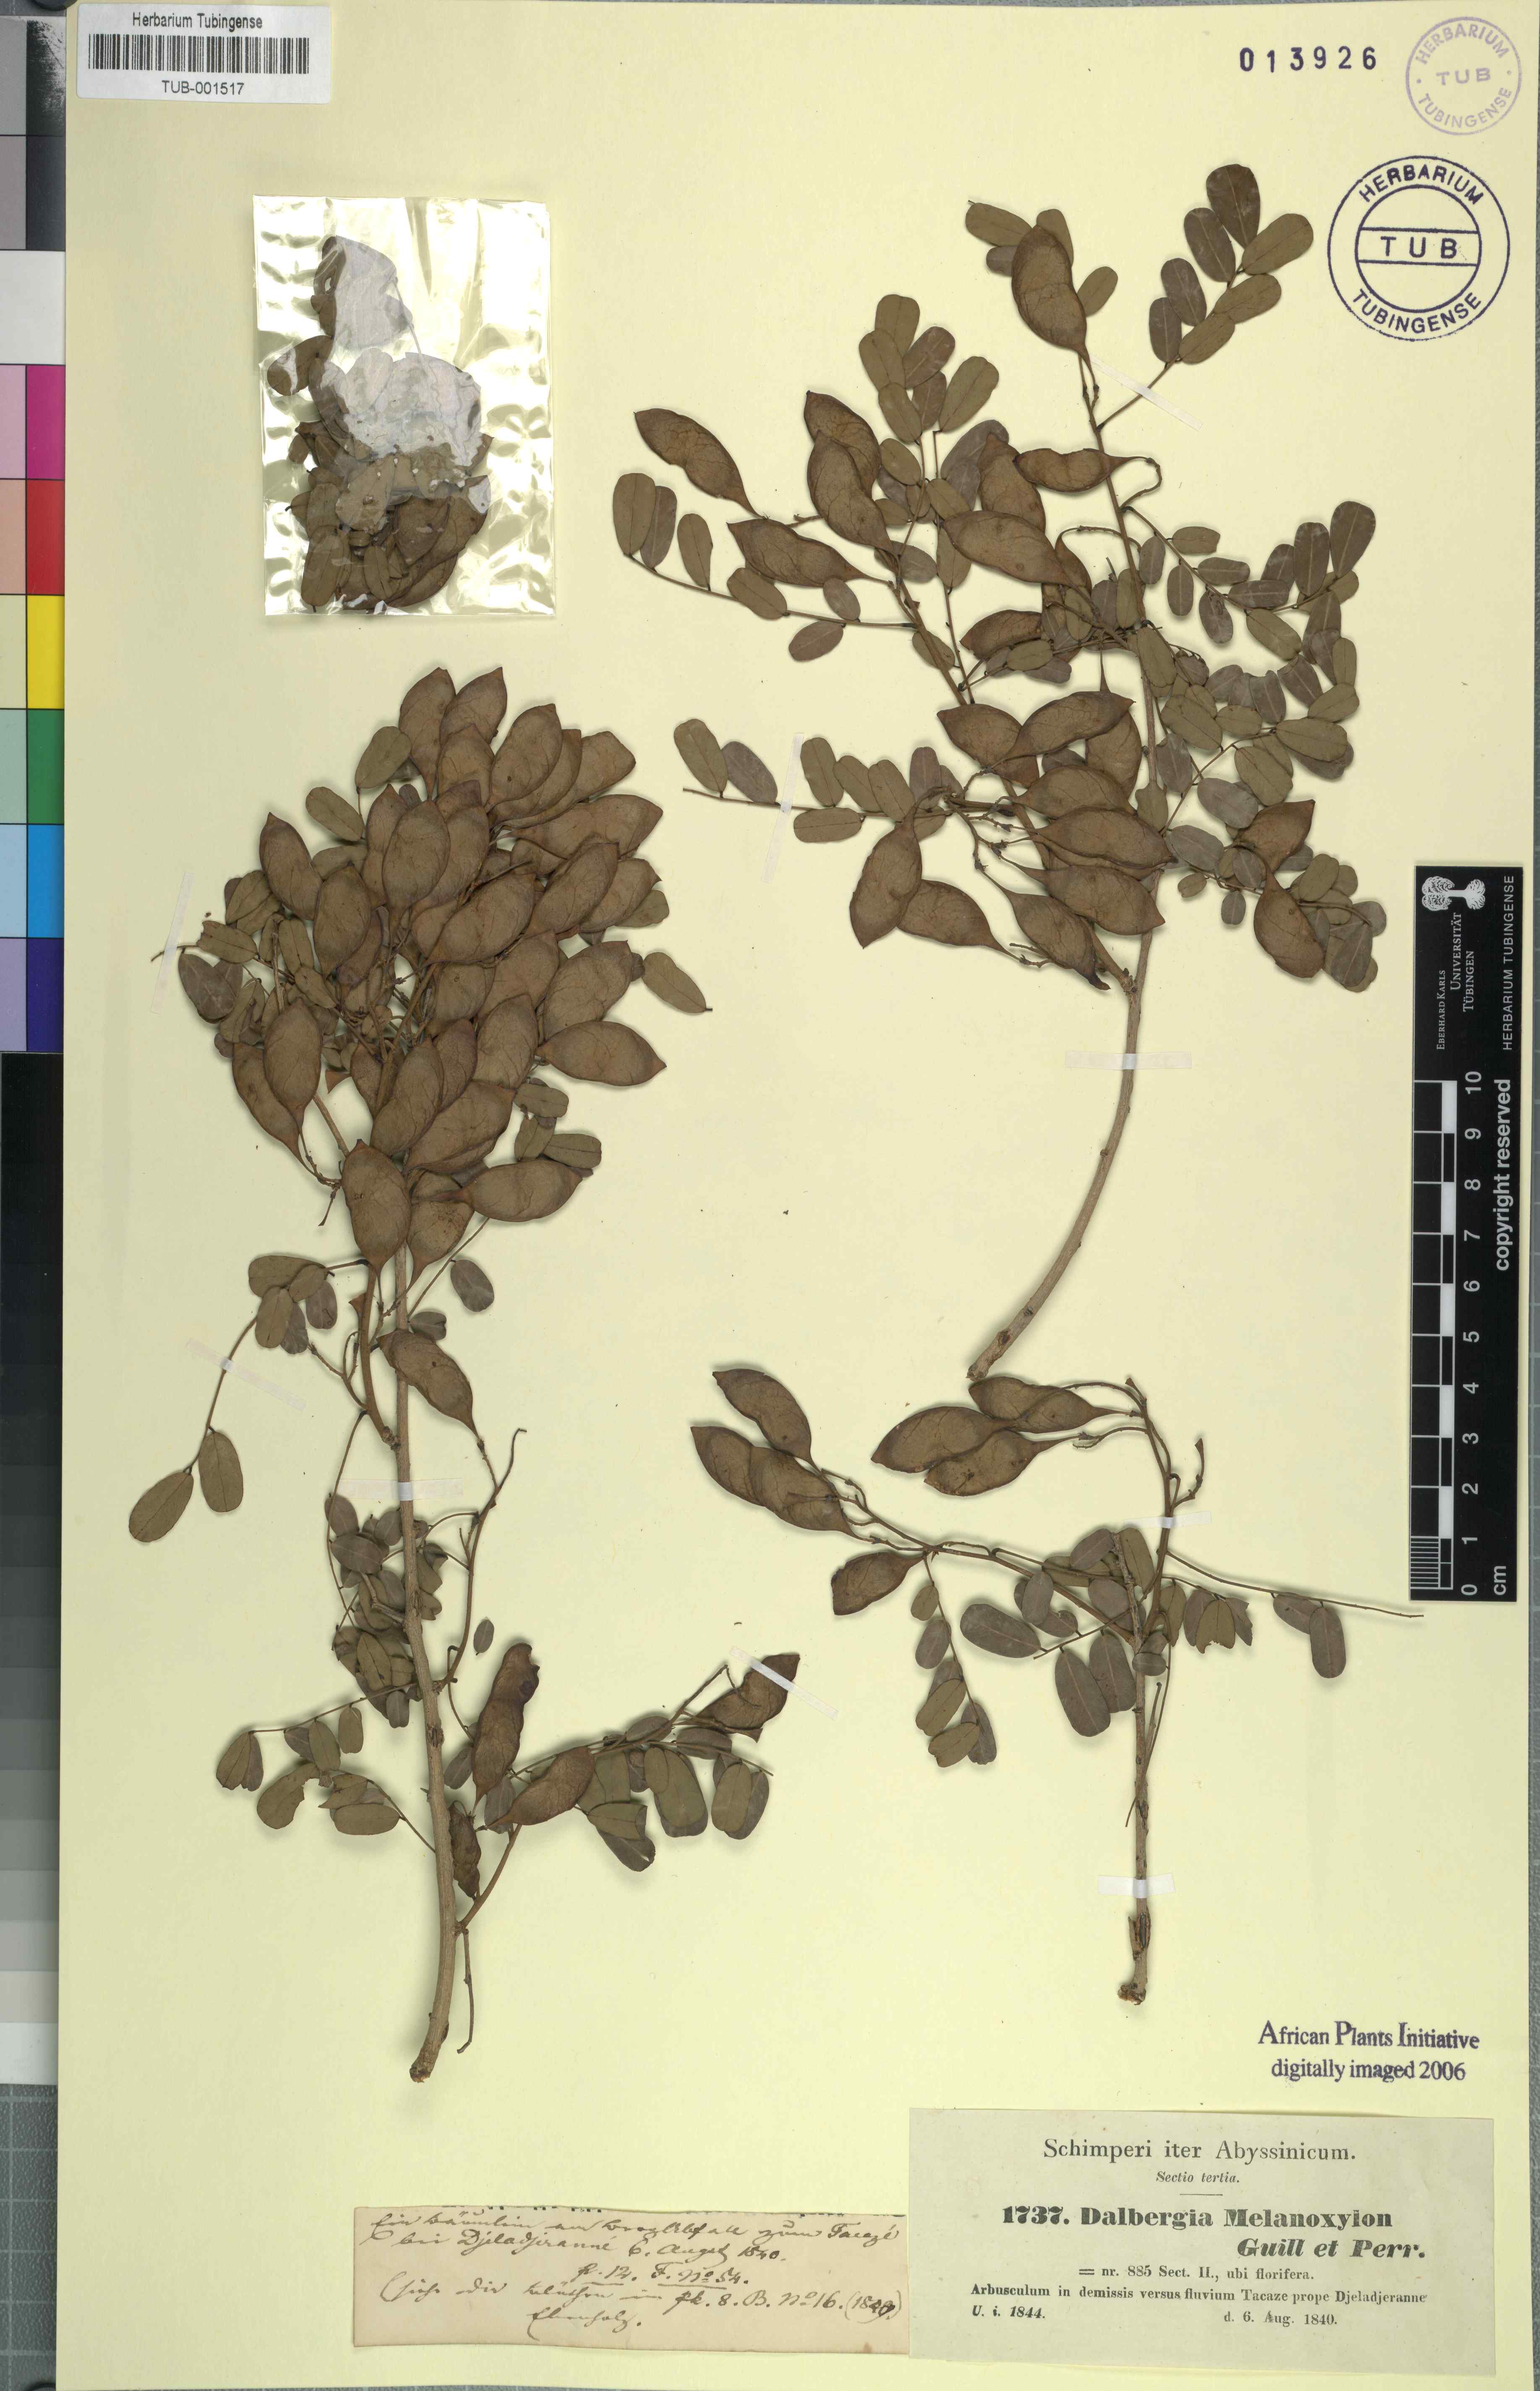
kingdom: Plantae
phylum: Tracheophyta
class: Magnoliopsida
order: Fabales
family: Fabaceae
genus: Dalbergia
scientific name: Dalbergia melanoxylon
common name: African blackwood
